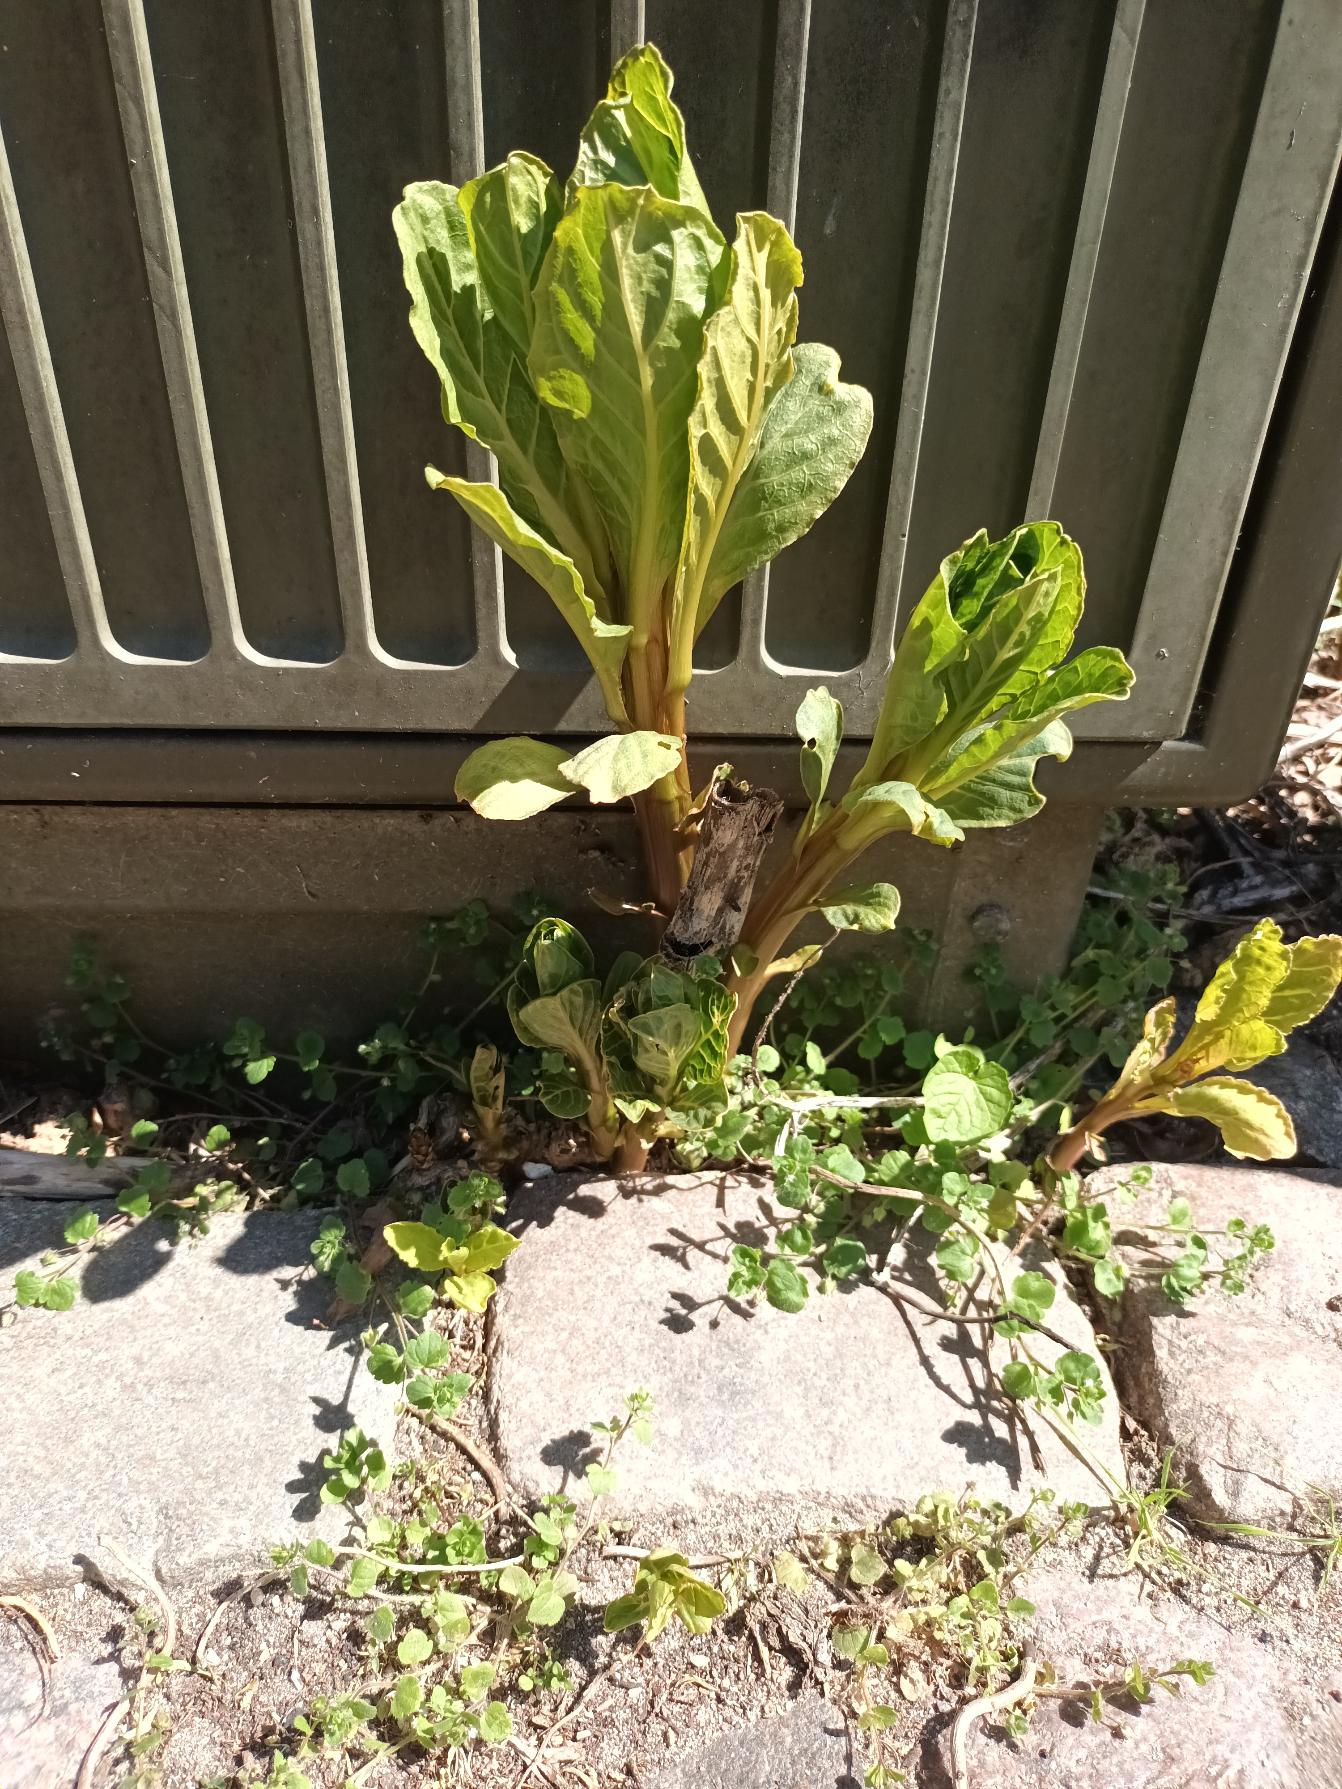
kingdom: Plantae
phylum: Tracheophyta
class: Magnoliopsida
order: Caryophyllales
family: Phytolaccaceae
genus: Phytolacca
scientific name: Phytolacca acinosa
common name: Asiatisk kermesbær
